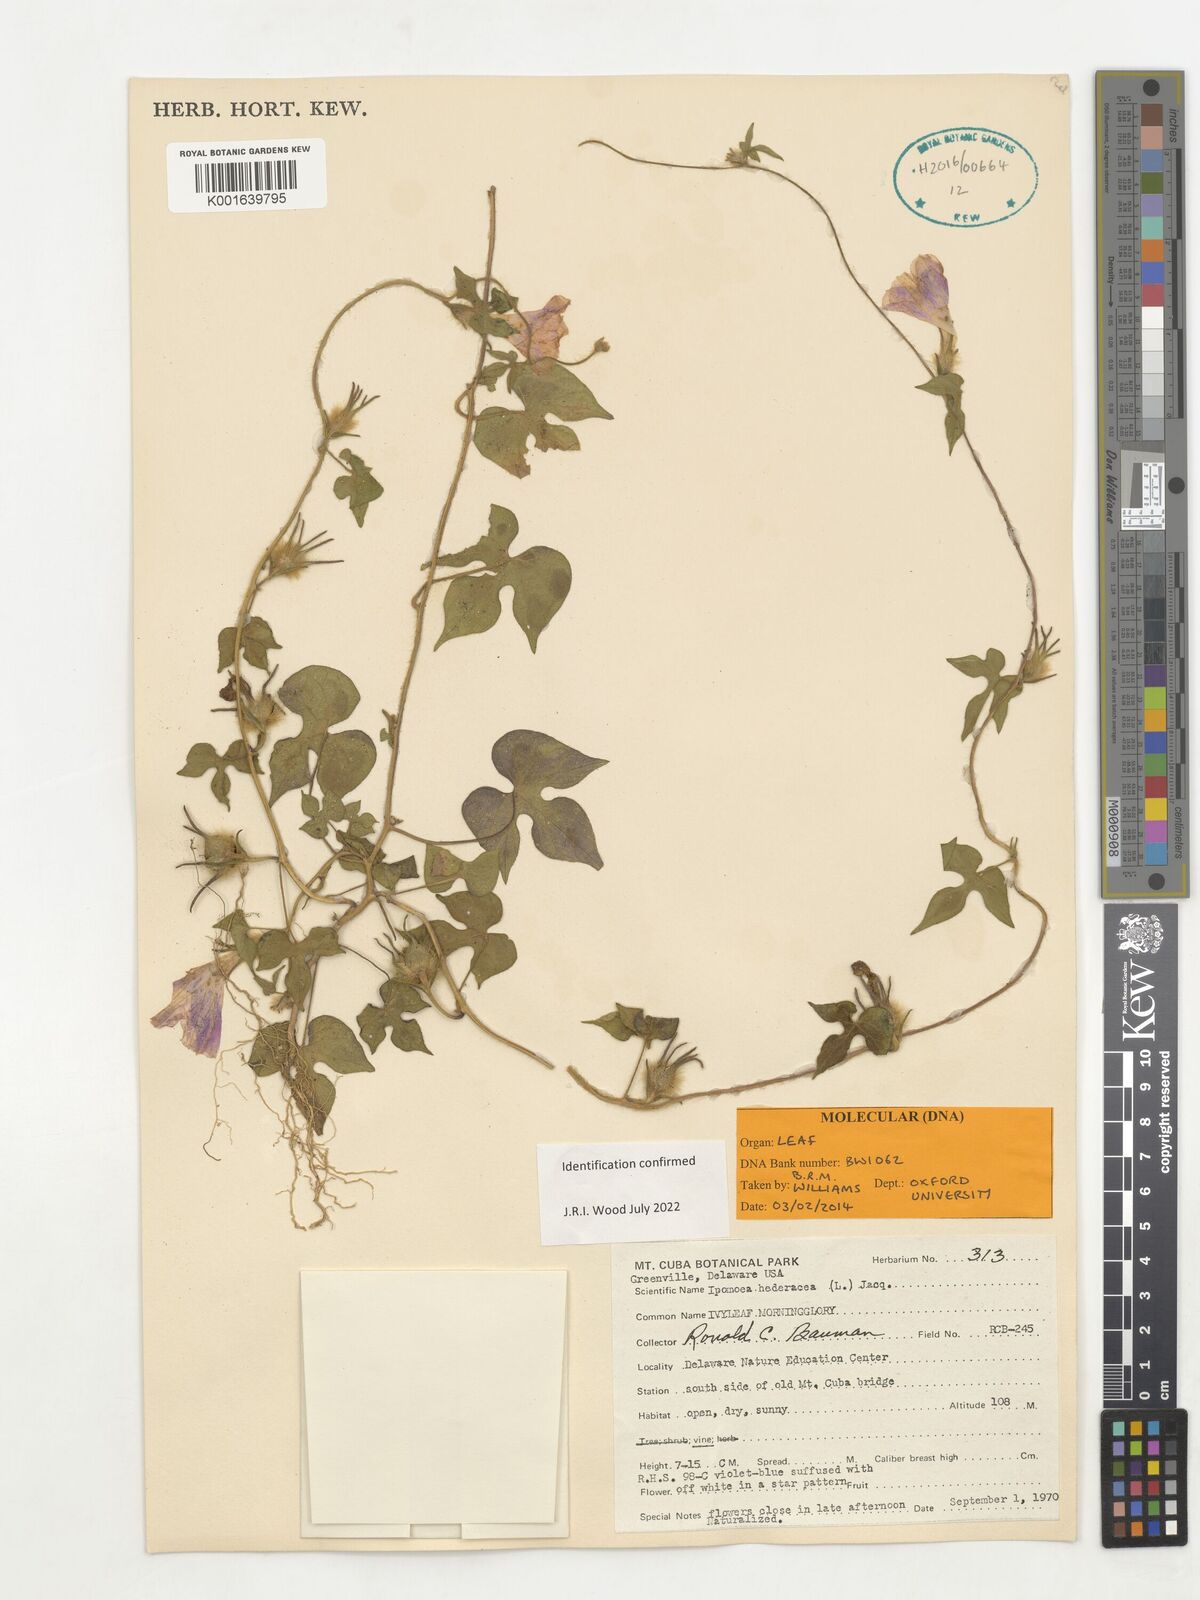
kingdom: Plantae
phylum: Tracheophyta
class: Magnoliopsida
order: Solanales
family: Convolvulaceae
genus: Ipomoea
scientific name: Ipomoea hederacea
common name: Ivy-leaved morning-glory
